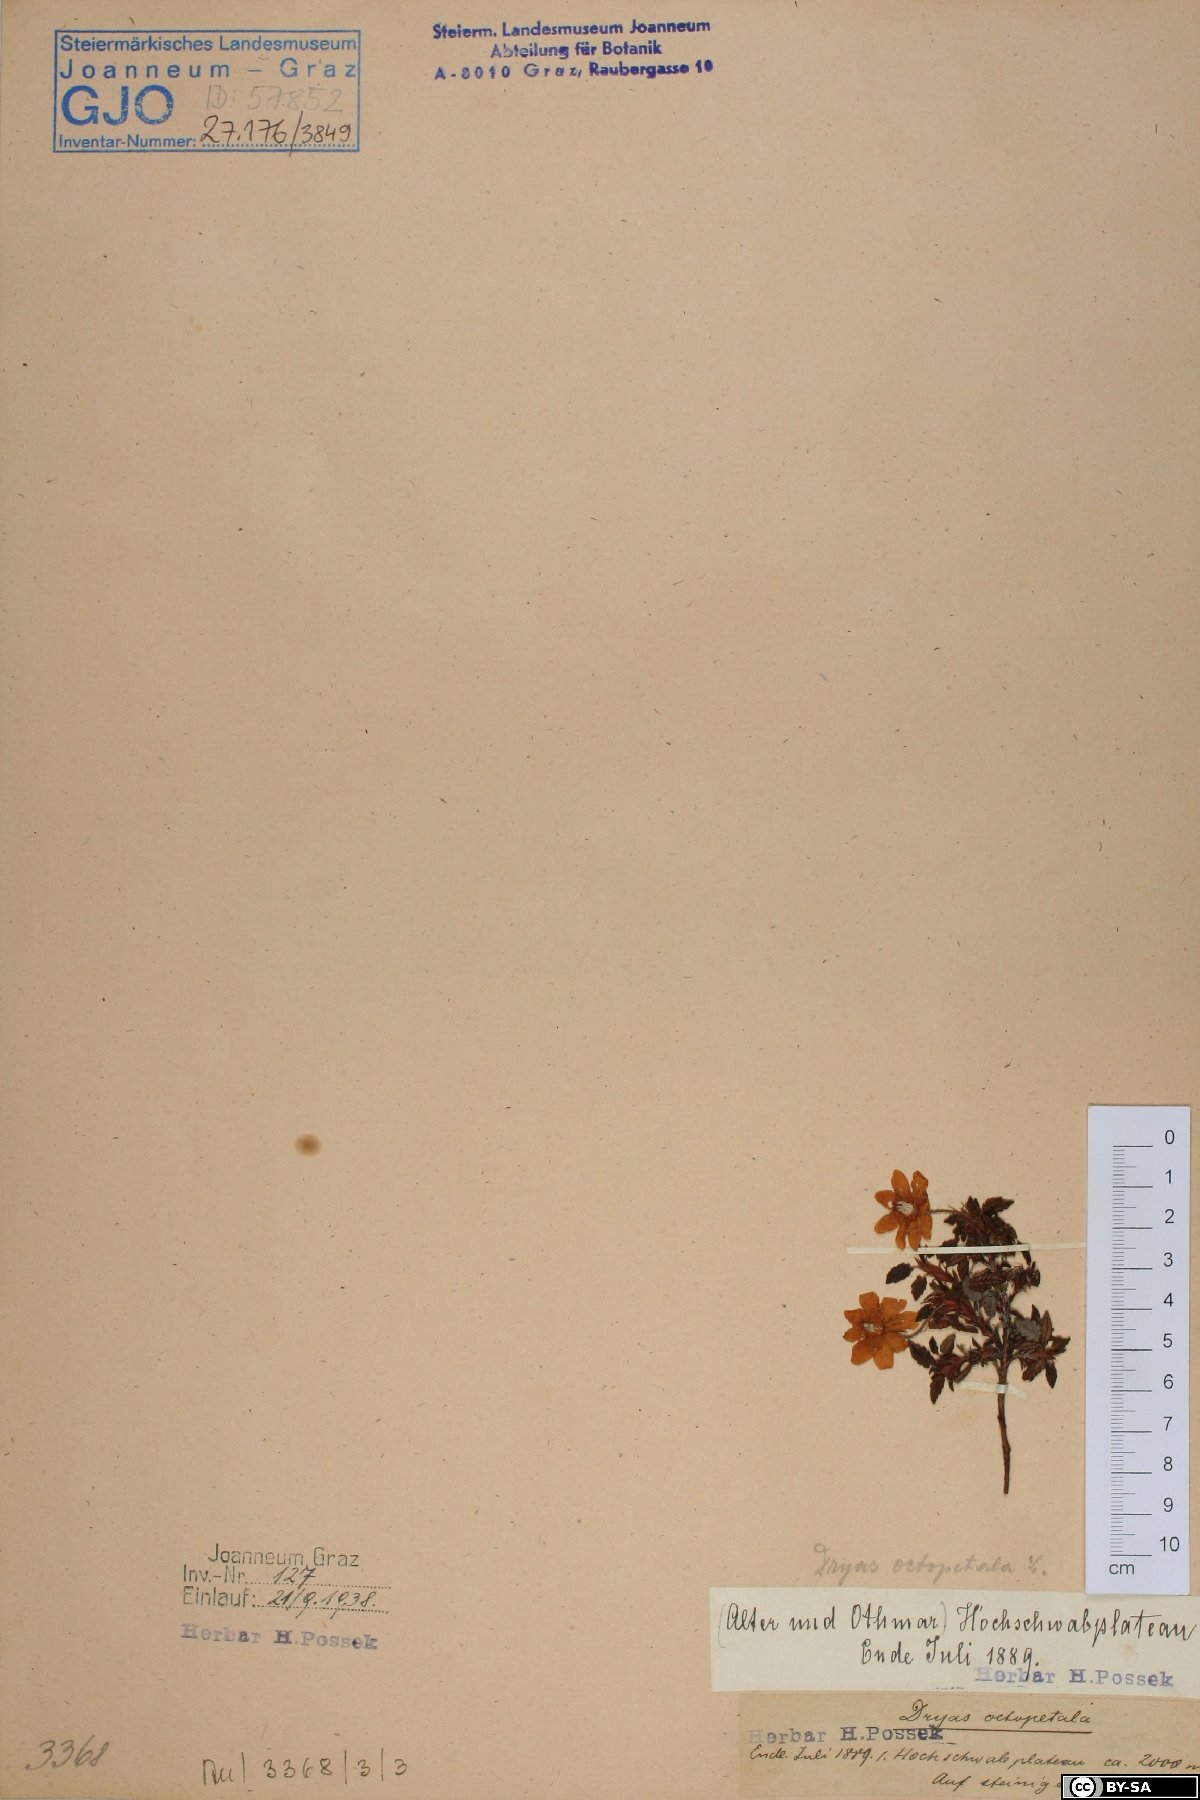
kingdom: Plantae
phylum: Tracheophyta
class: Magnoliopsida
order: Rosales
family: Rosaceae
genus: Dryas
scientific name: Dryas octopetala
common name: Eight-petal mountain-avens
